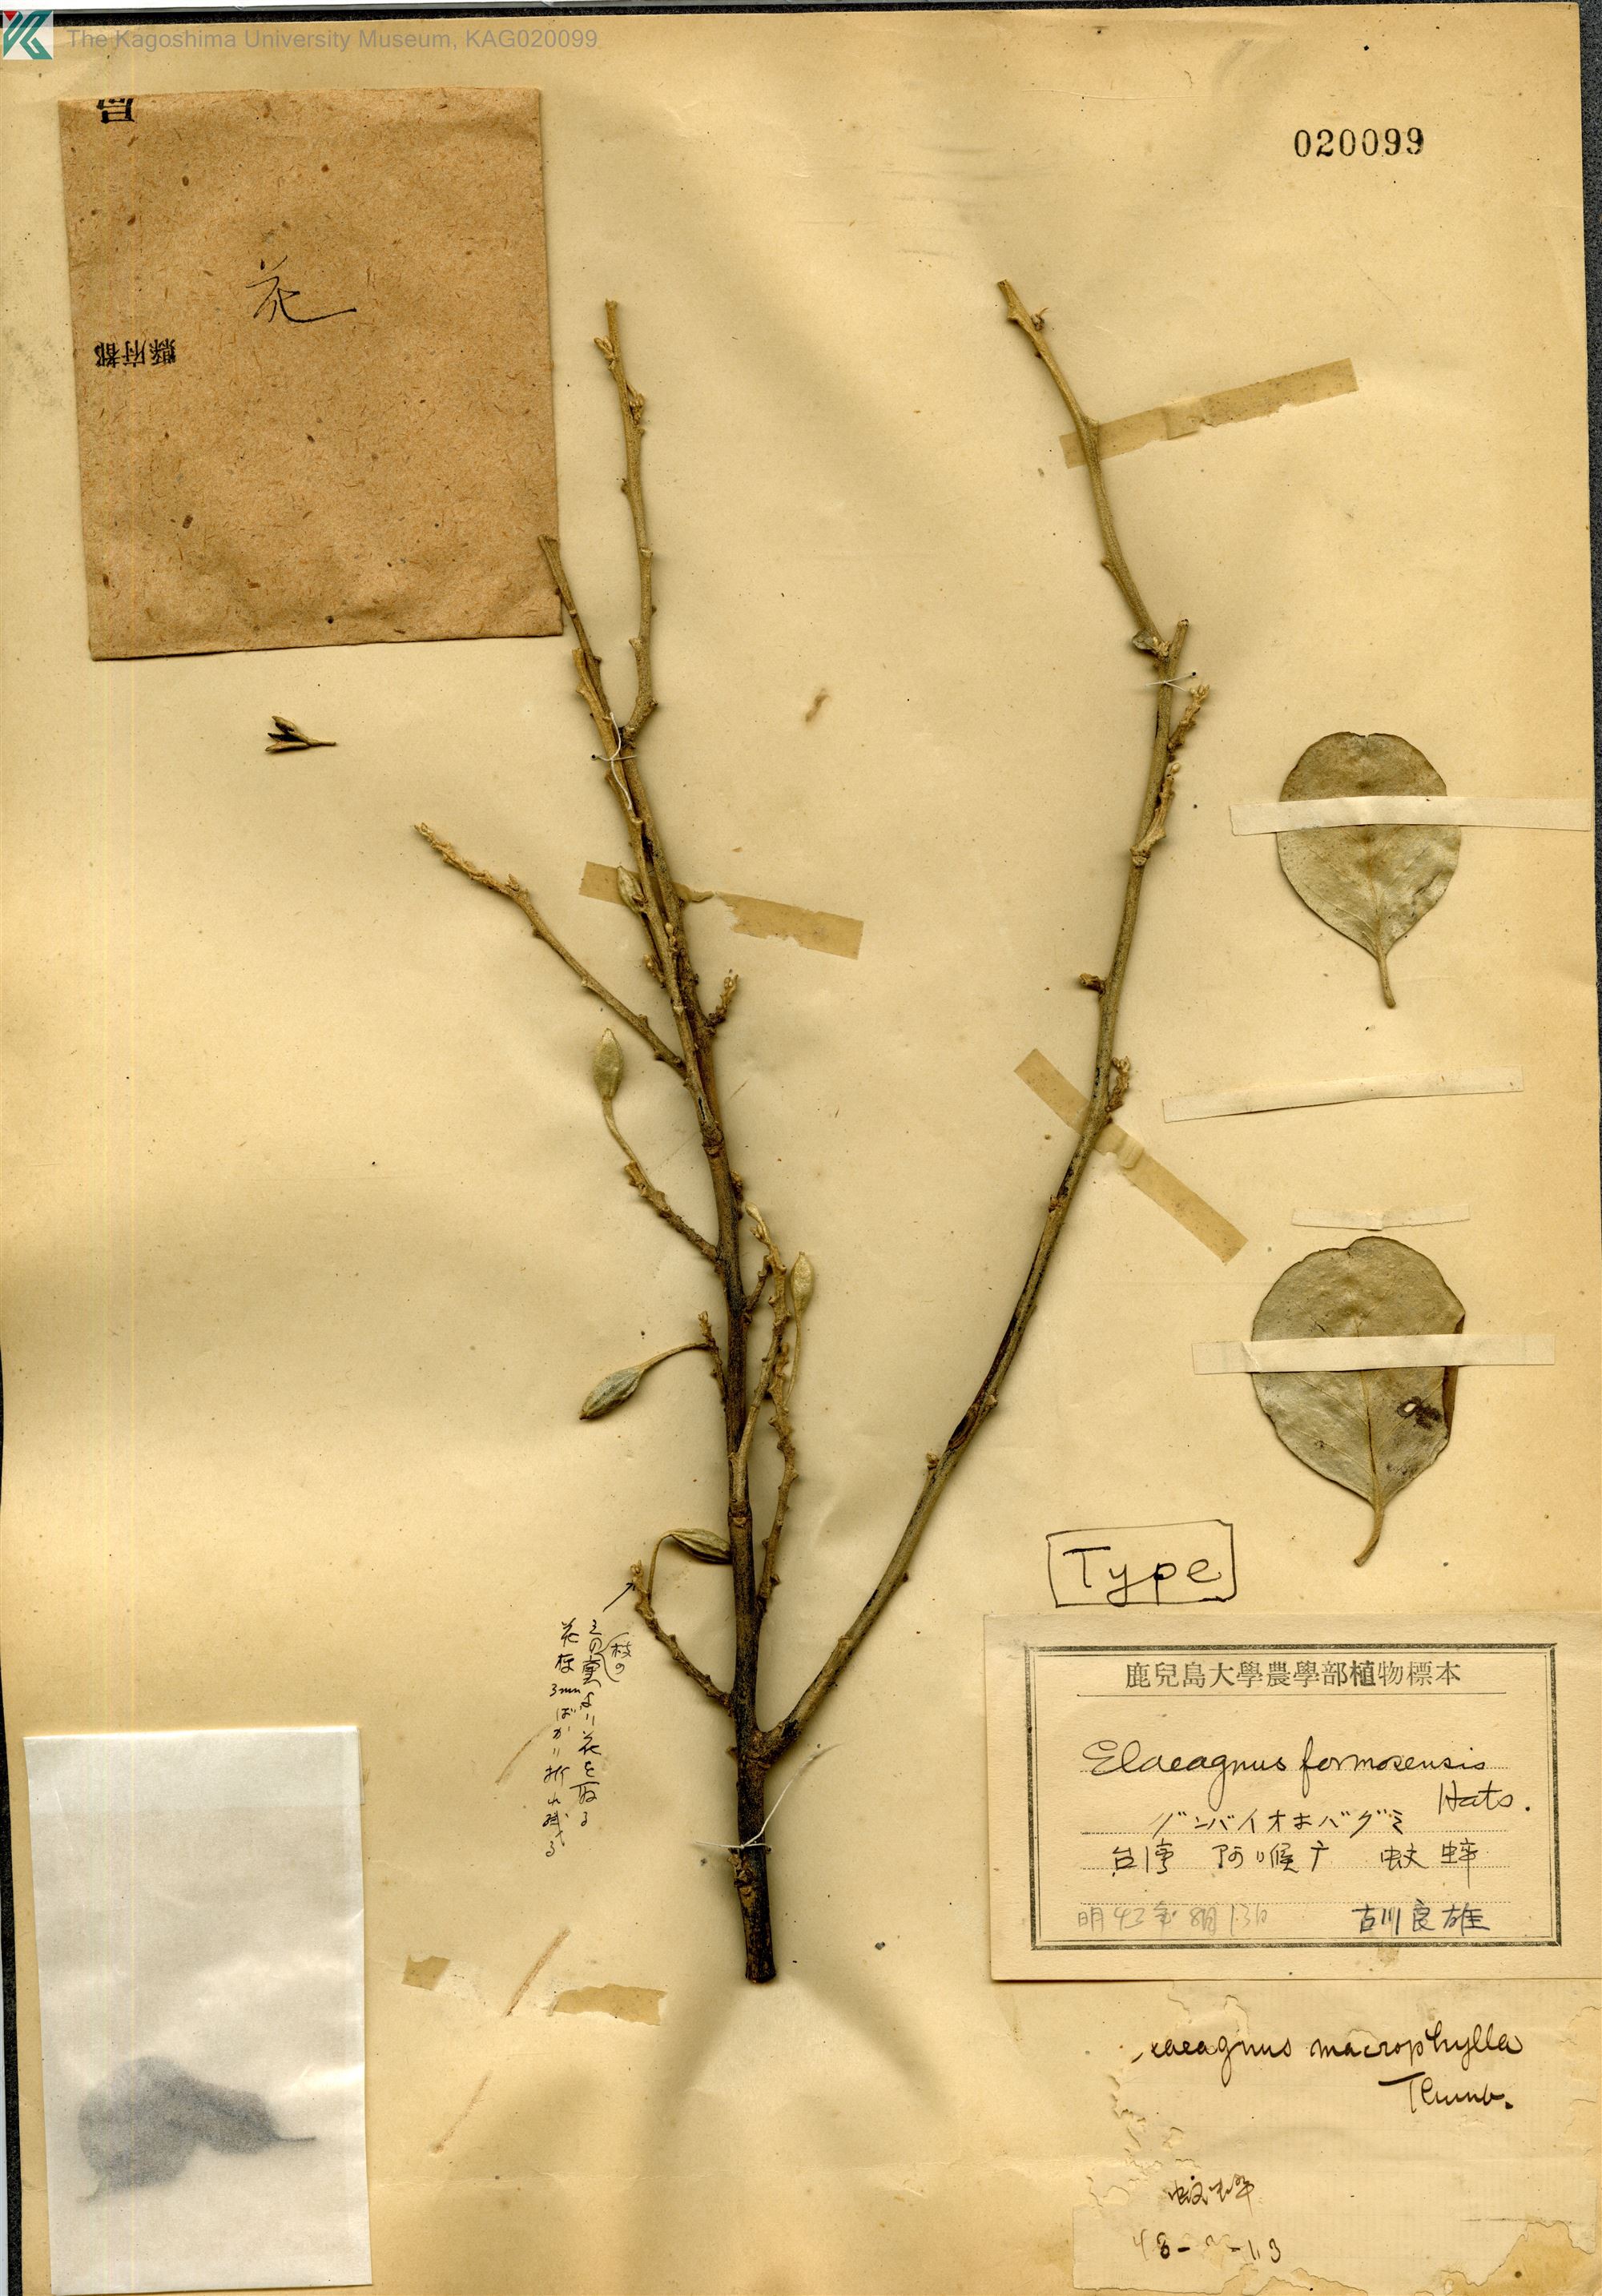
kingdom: Plantae
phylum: Tracheophyta
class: Magnoliopsida
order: Rosales
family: Elaeagnaceae
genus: Elaeagnus
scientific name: Elaeagnus formosensis
